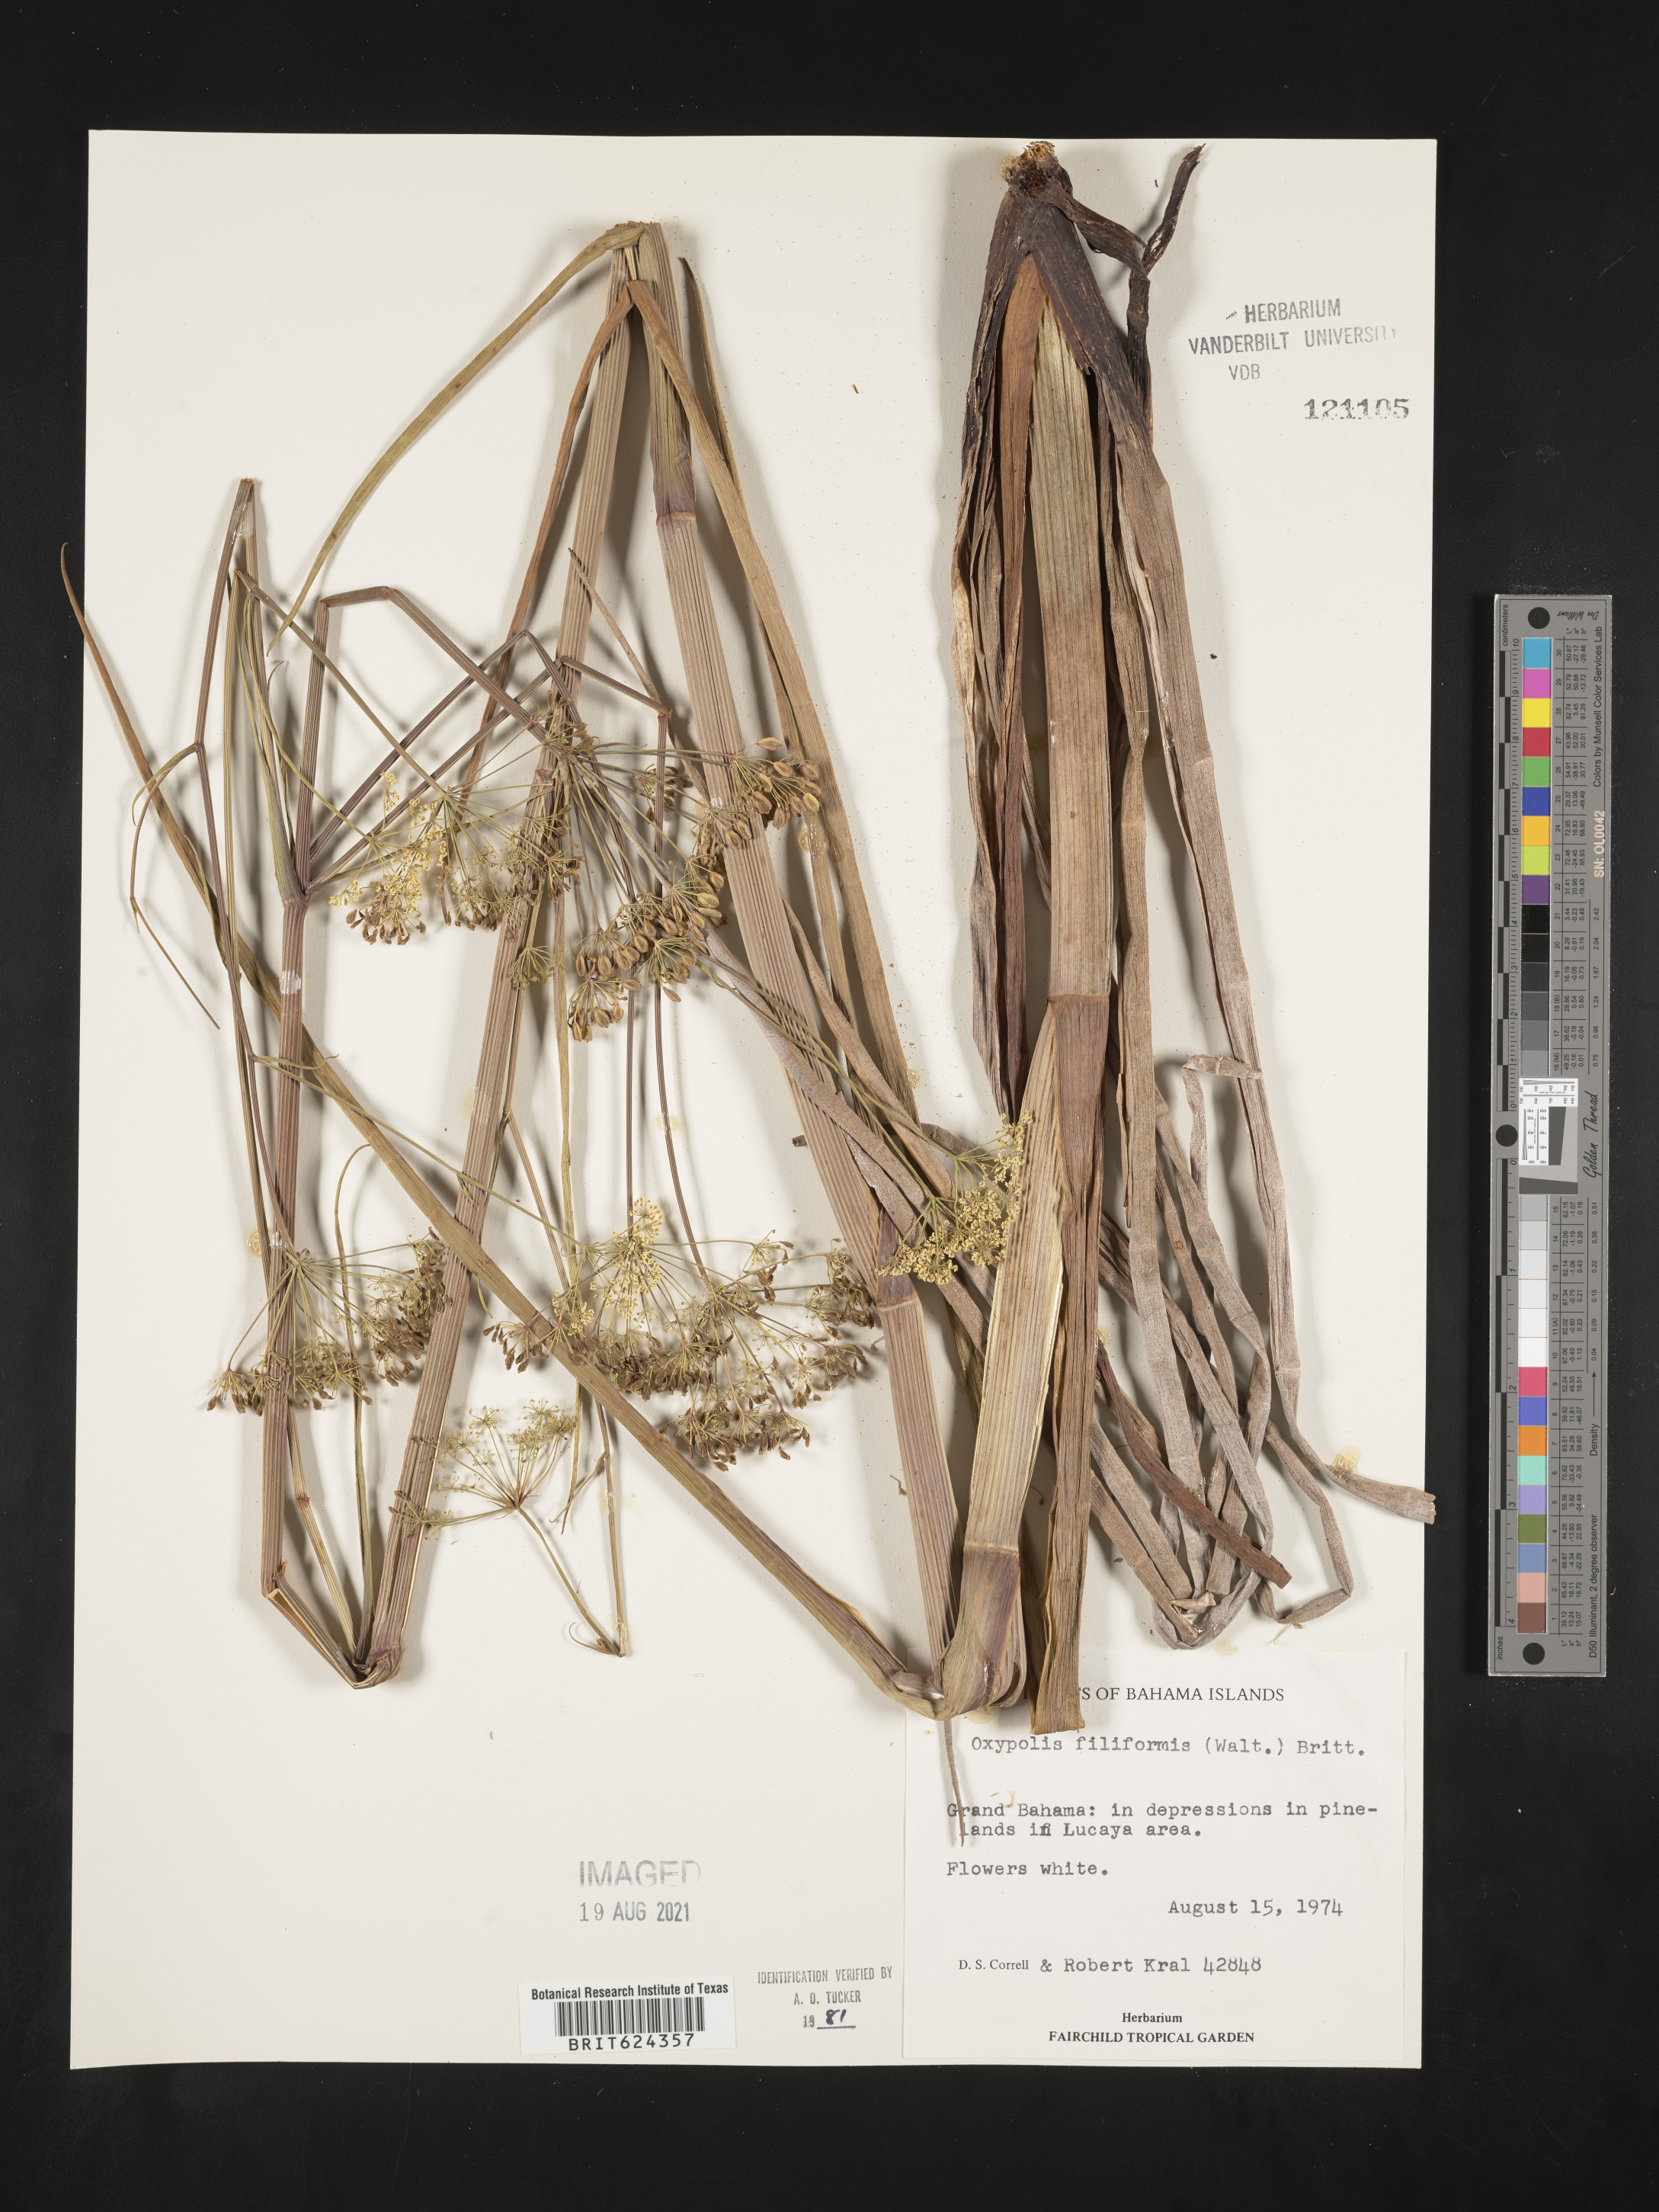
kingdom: Plantae
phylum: Tracheophyta
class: Magnoliopsida
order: Apiales
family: Apiaceae
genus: Tiedemannia
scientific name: Tiedemannia filiformis
